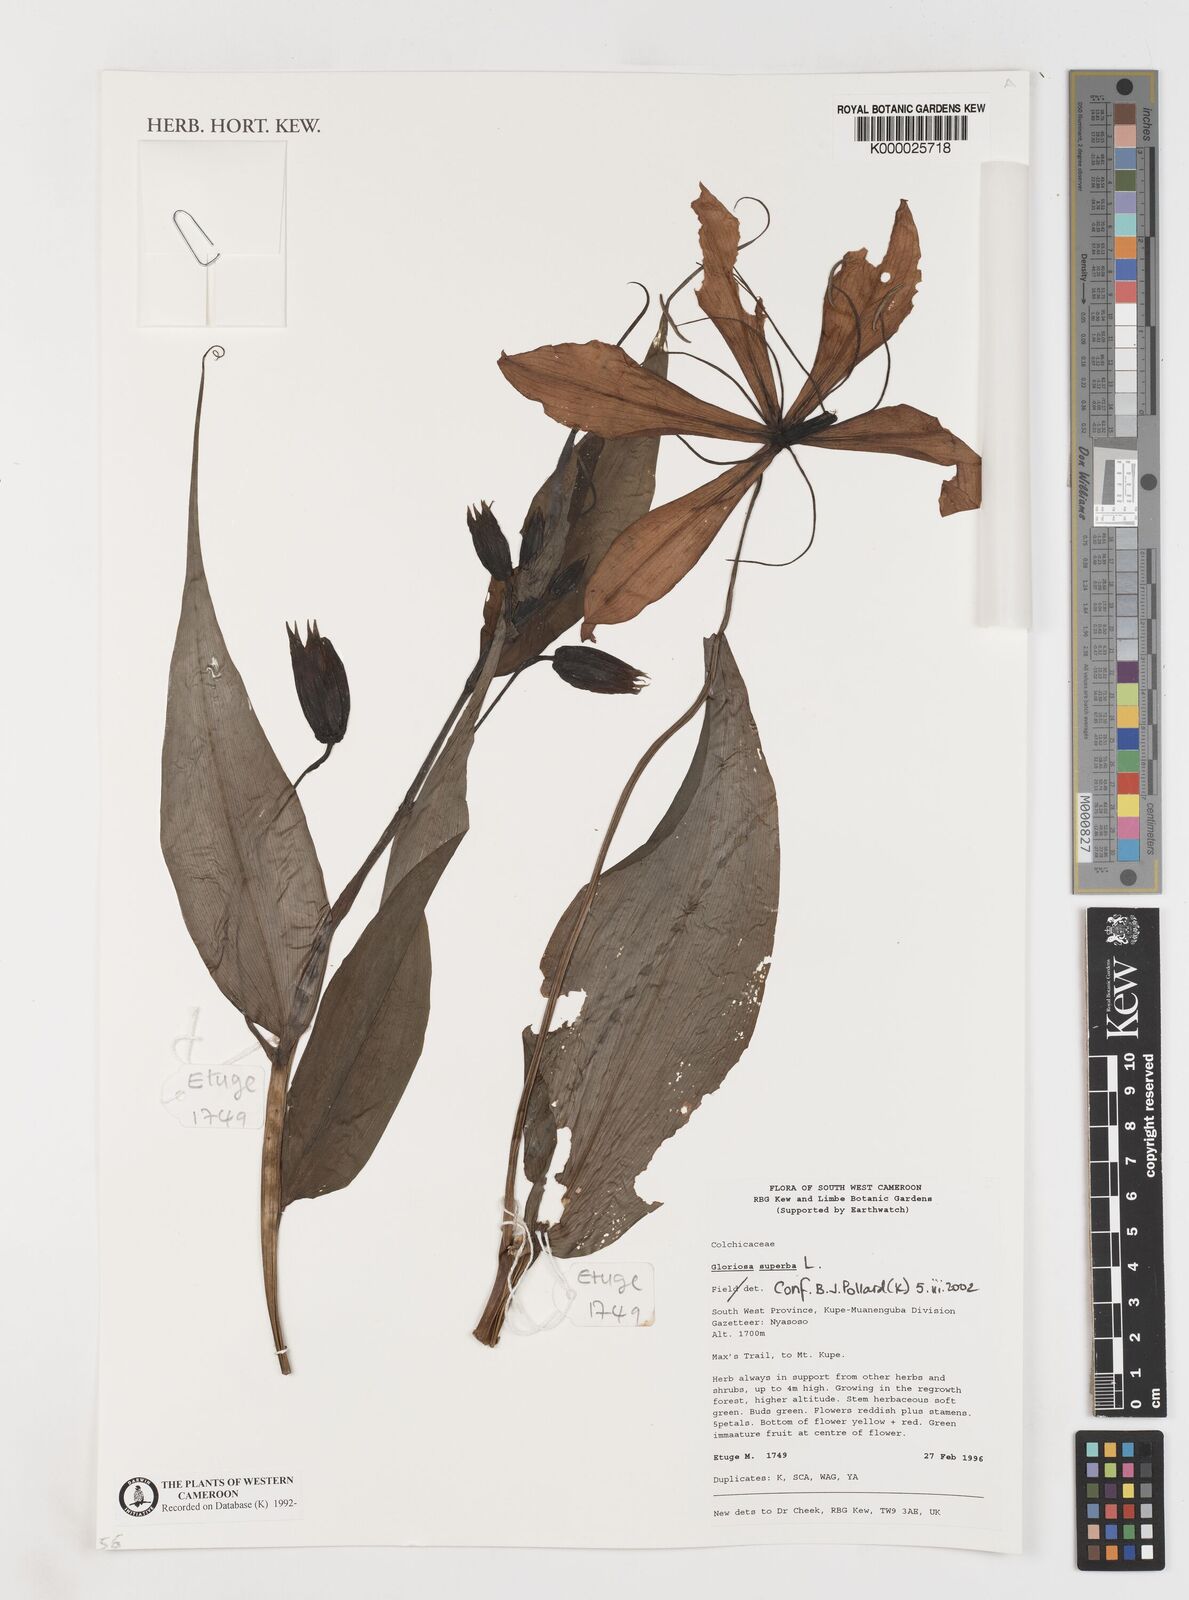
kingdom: Plantae
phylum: Tracheophyta
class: Liliopsida
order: Liliales
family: Colchicaceae
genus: Gloriosa
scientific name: Gloriosa superba
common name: Flame lily
